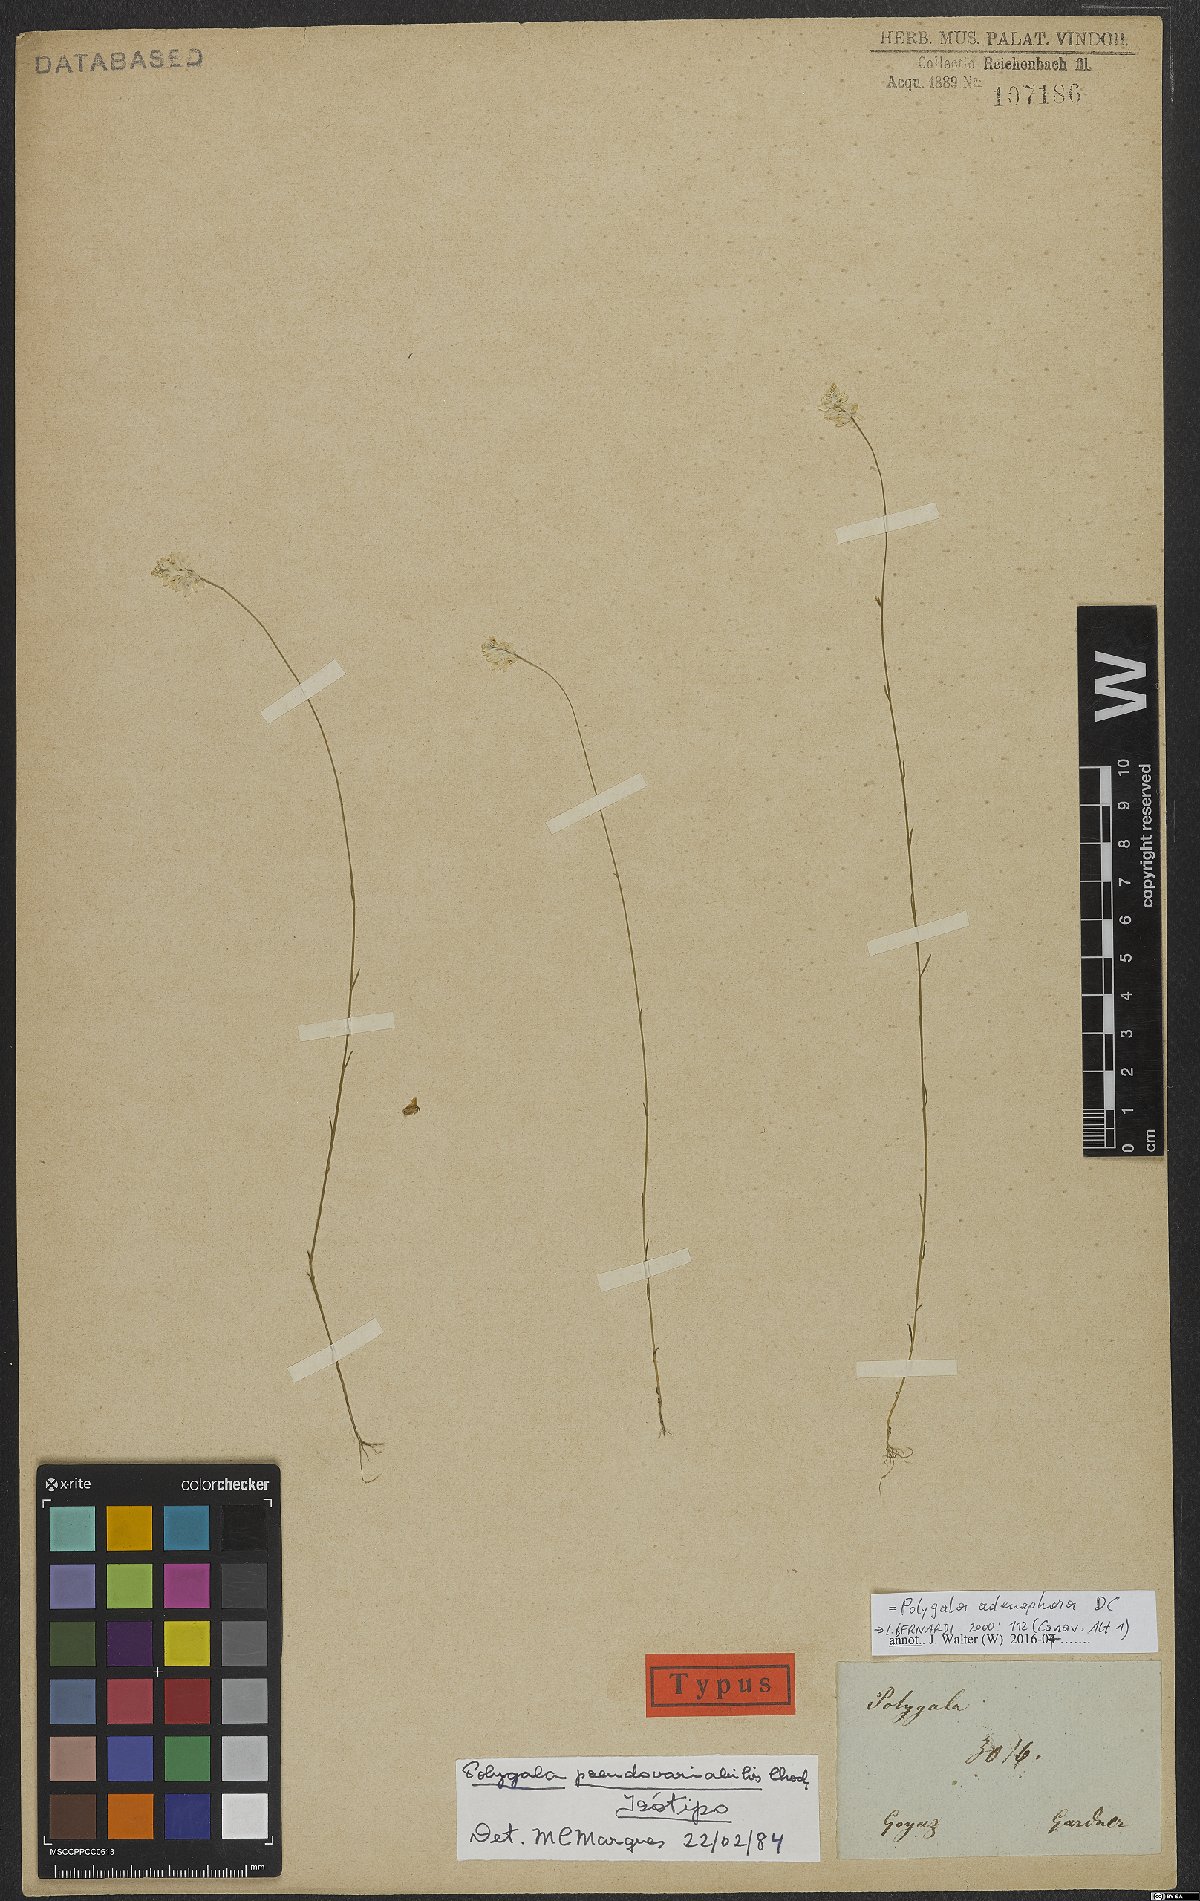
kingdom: Plantae
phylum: Tracheophyta
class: Magnoliopsida
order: Fabales
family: Polygalaceae
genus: Polygala
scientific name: Polygala adenophora
